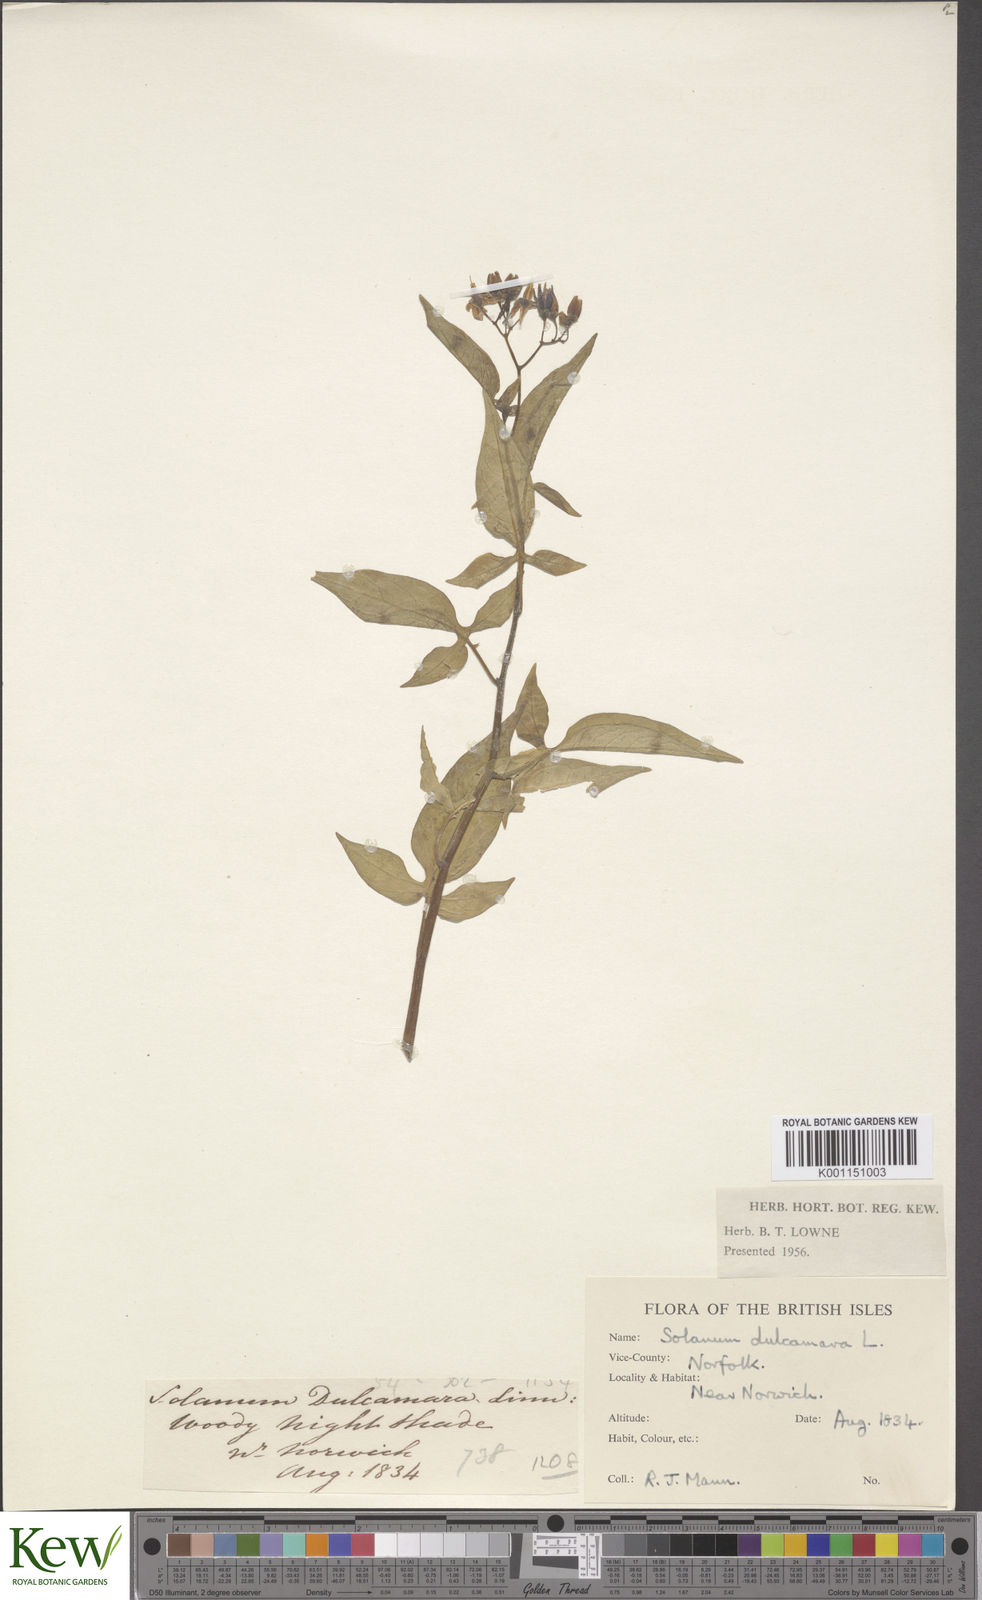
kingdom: Plantae
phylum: Tracheophyta
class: Magnoliopsida
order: Solanales
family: Solanaceae
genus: Solanum
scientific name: Solanum dulcamara
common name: Climbing nightshade
